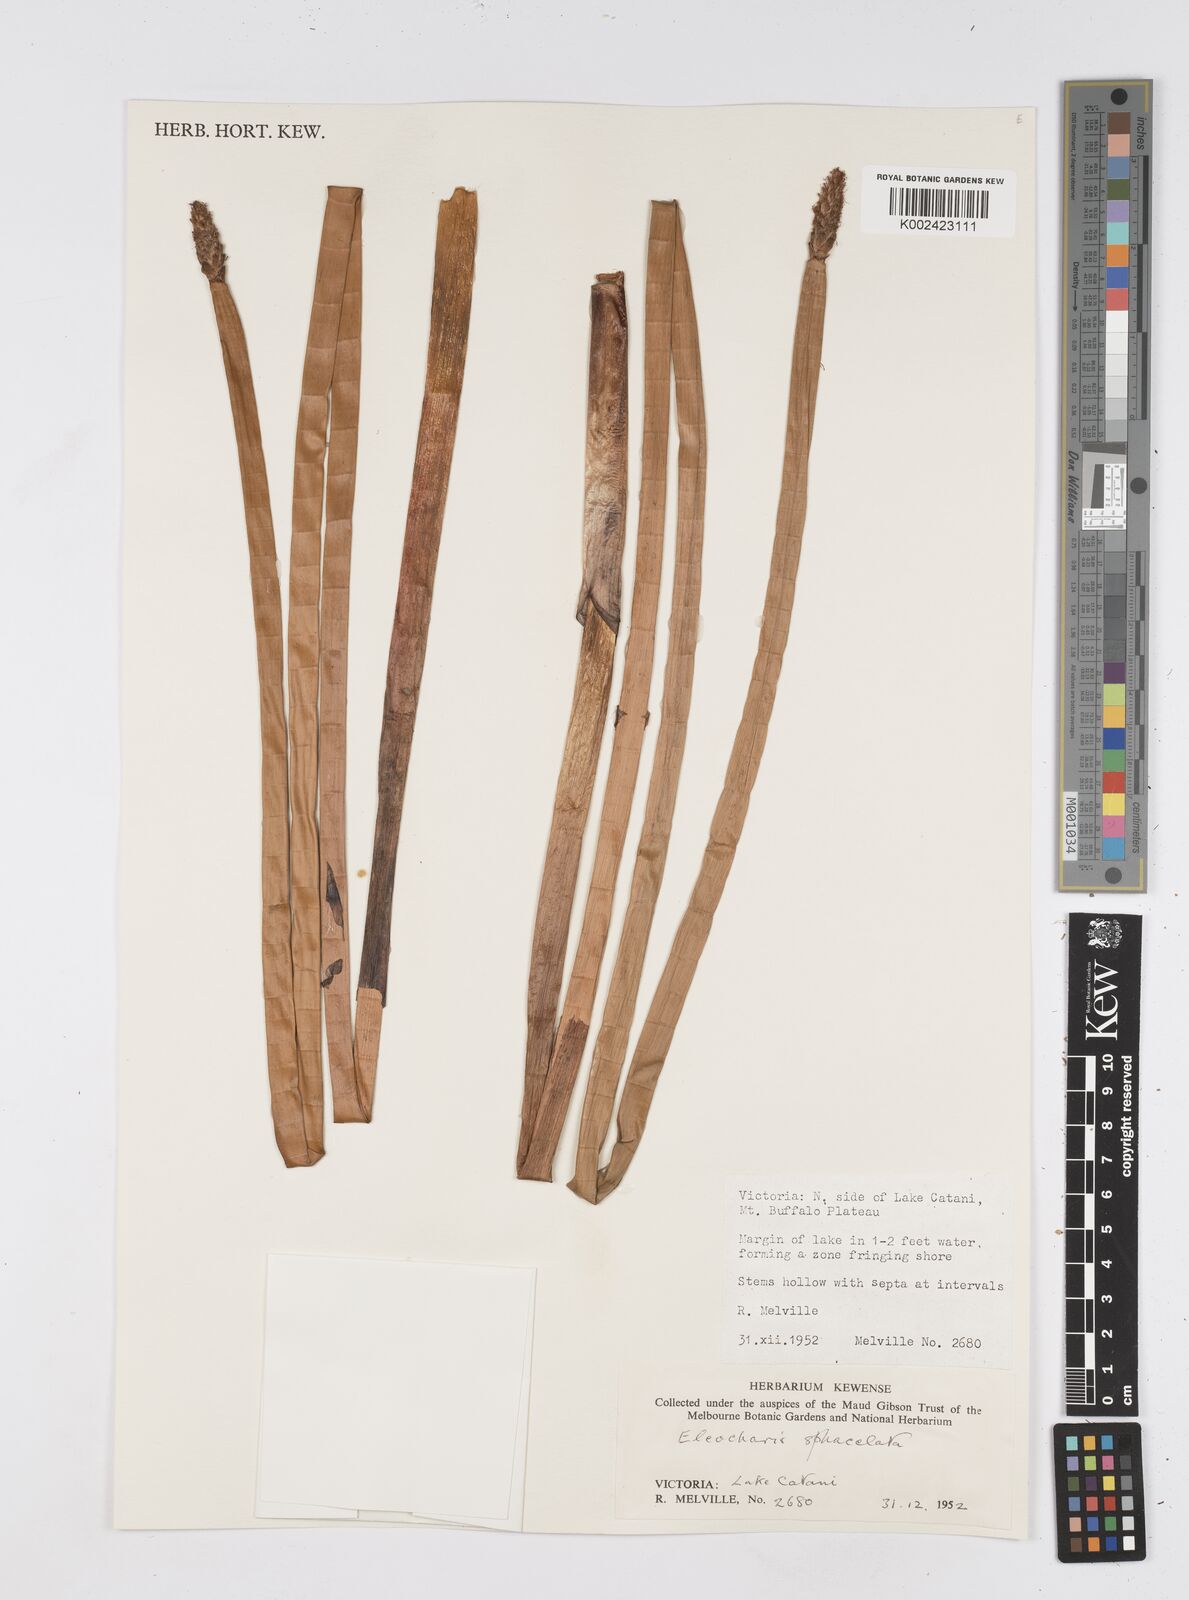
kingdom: Plantae
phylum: Tracheophyta
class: Liliopsida
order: Poales
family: Cyperaceae
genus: Eleocharis
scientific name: Eleocharis sphacelata
